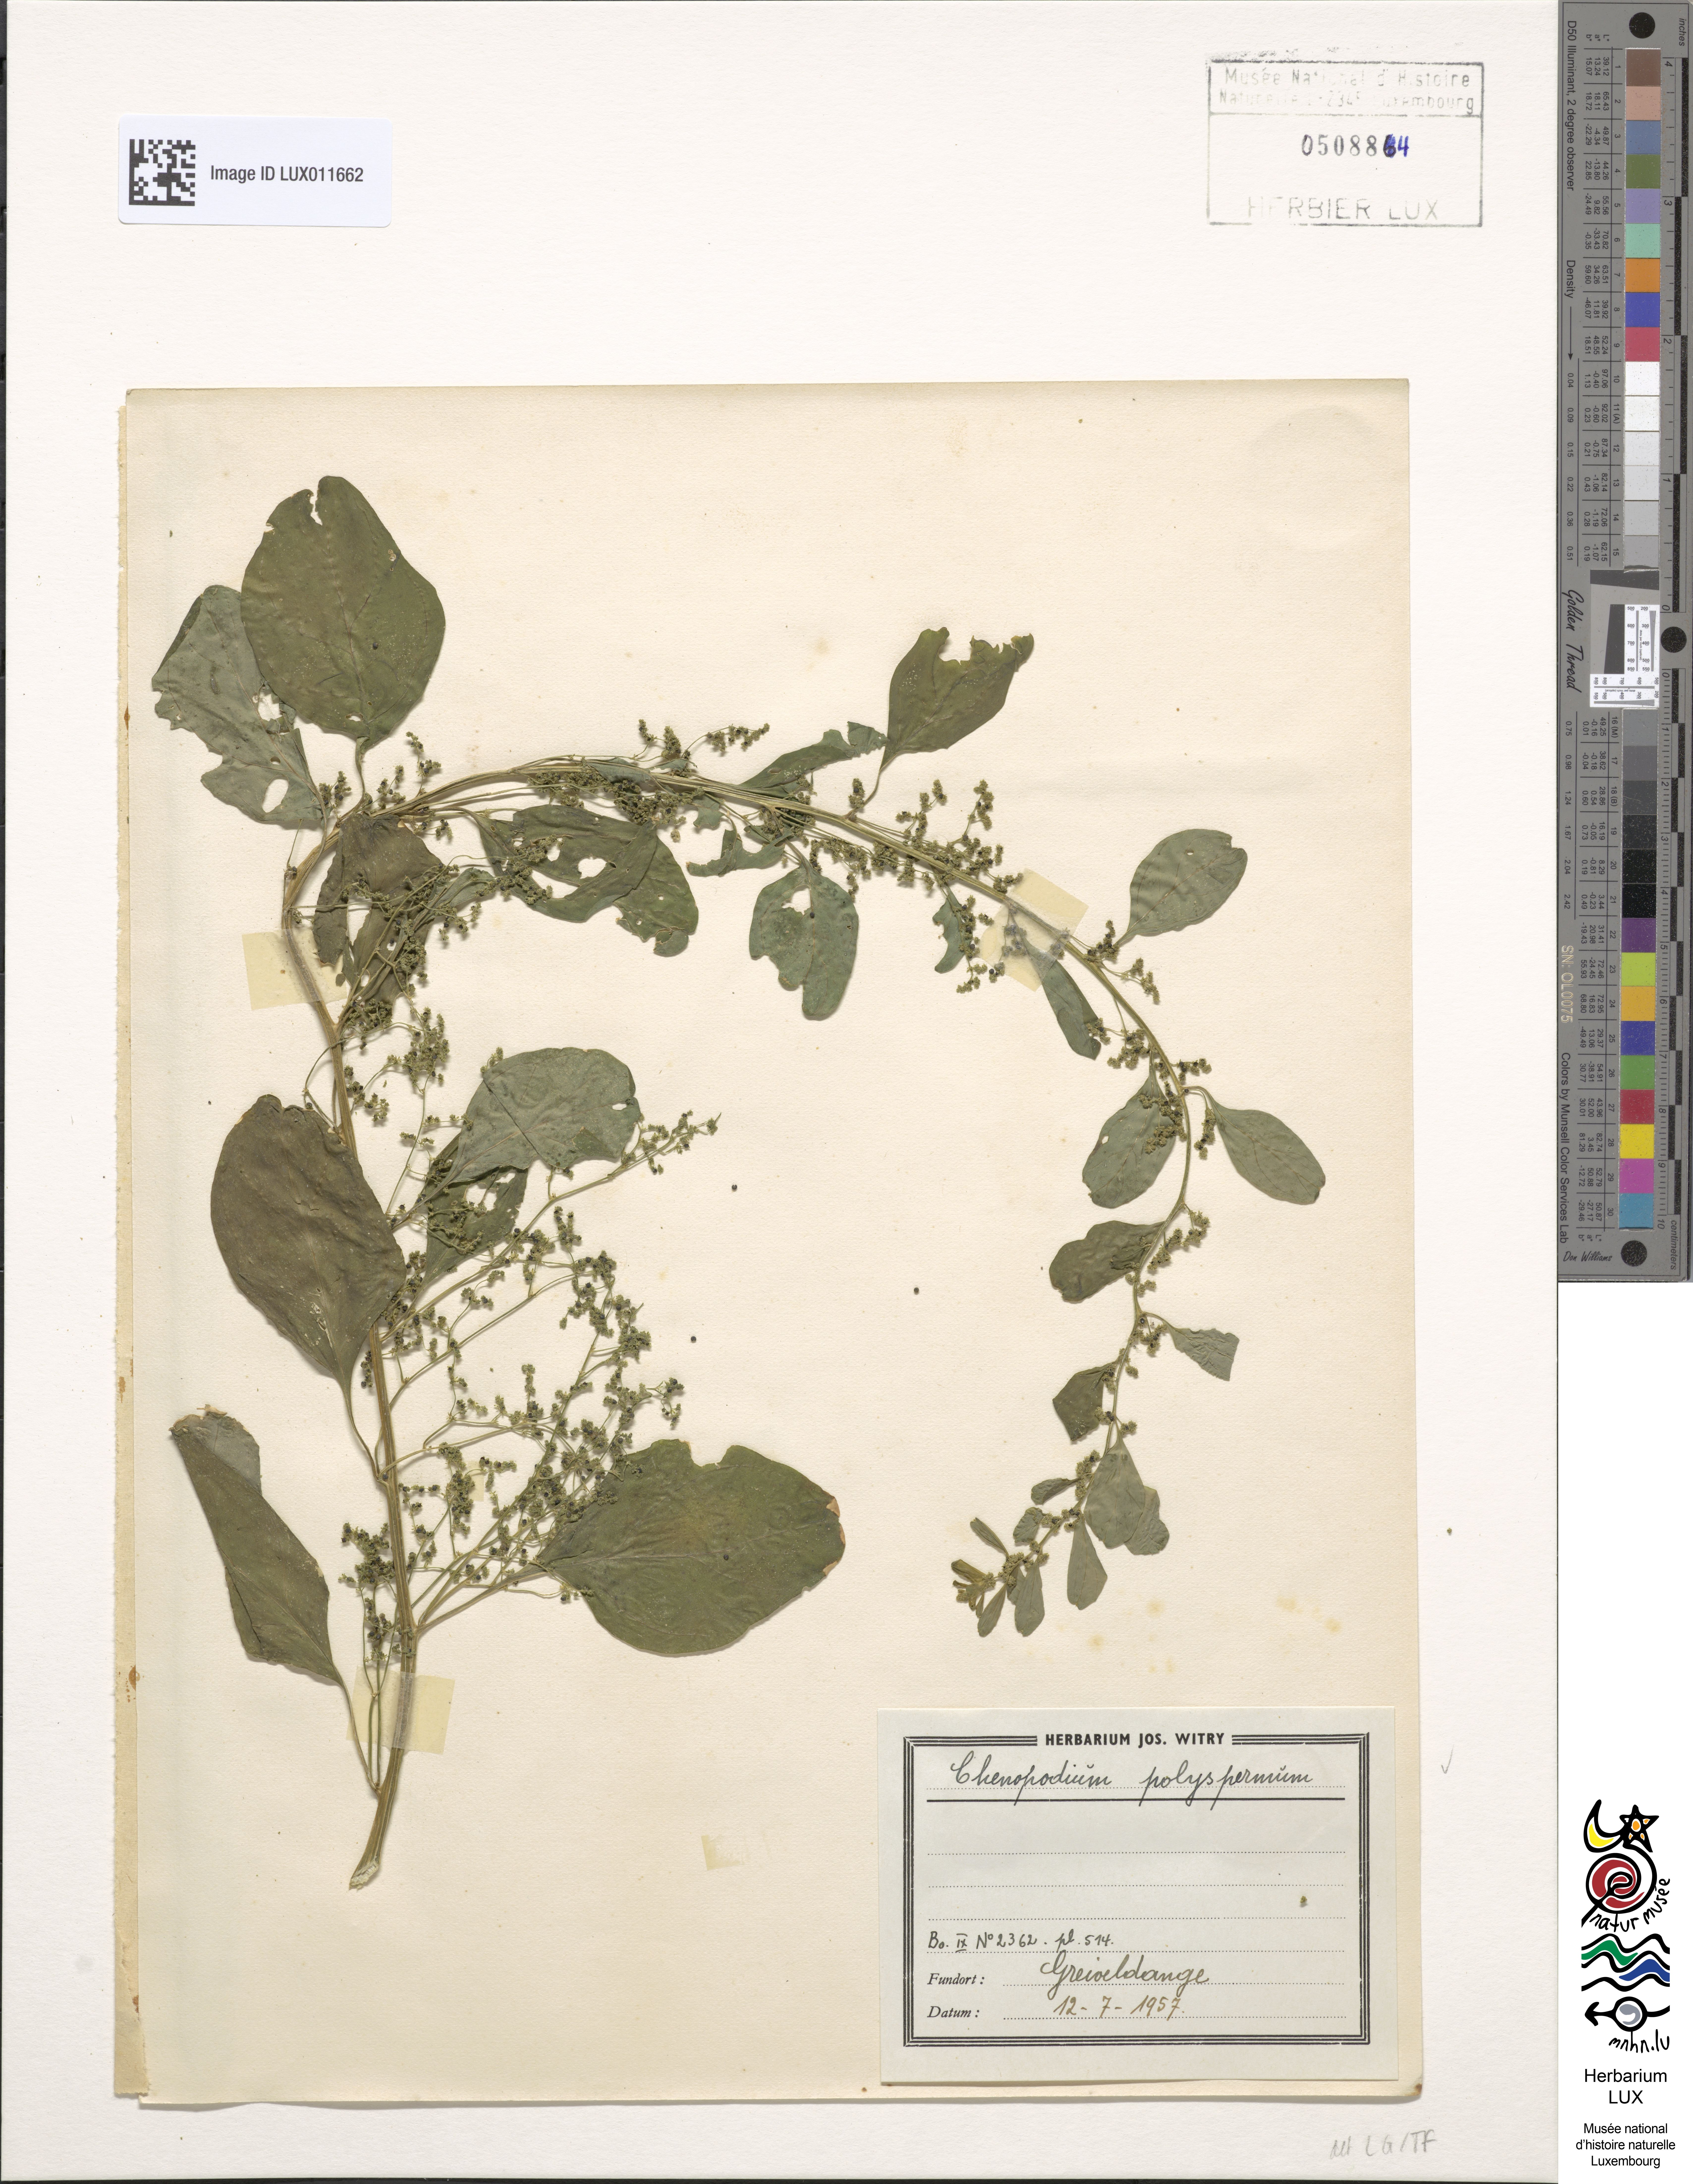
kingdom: Plantae
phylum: Tracheophyta
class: Magnoliopsida
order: Caryophyllales
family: Amaranthaceae
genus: Lipandra
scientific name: Lipandra polysperma
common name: Many-seed goosefoot
